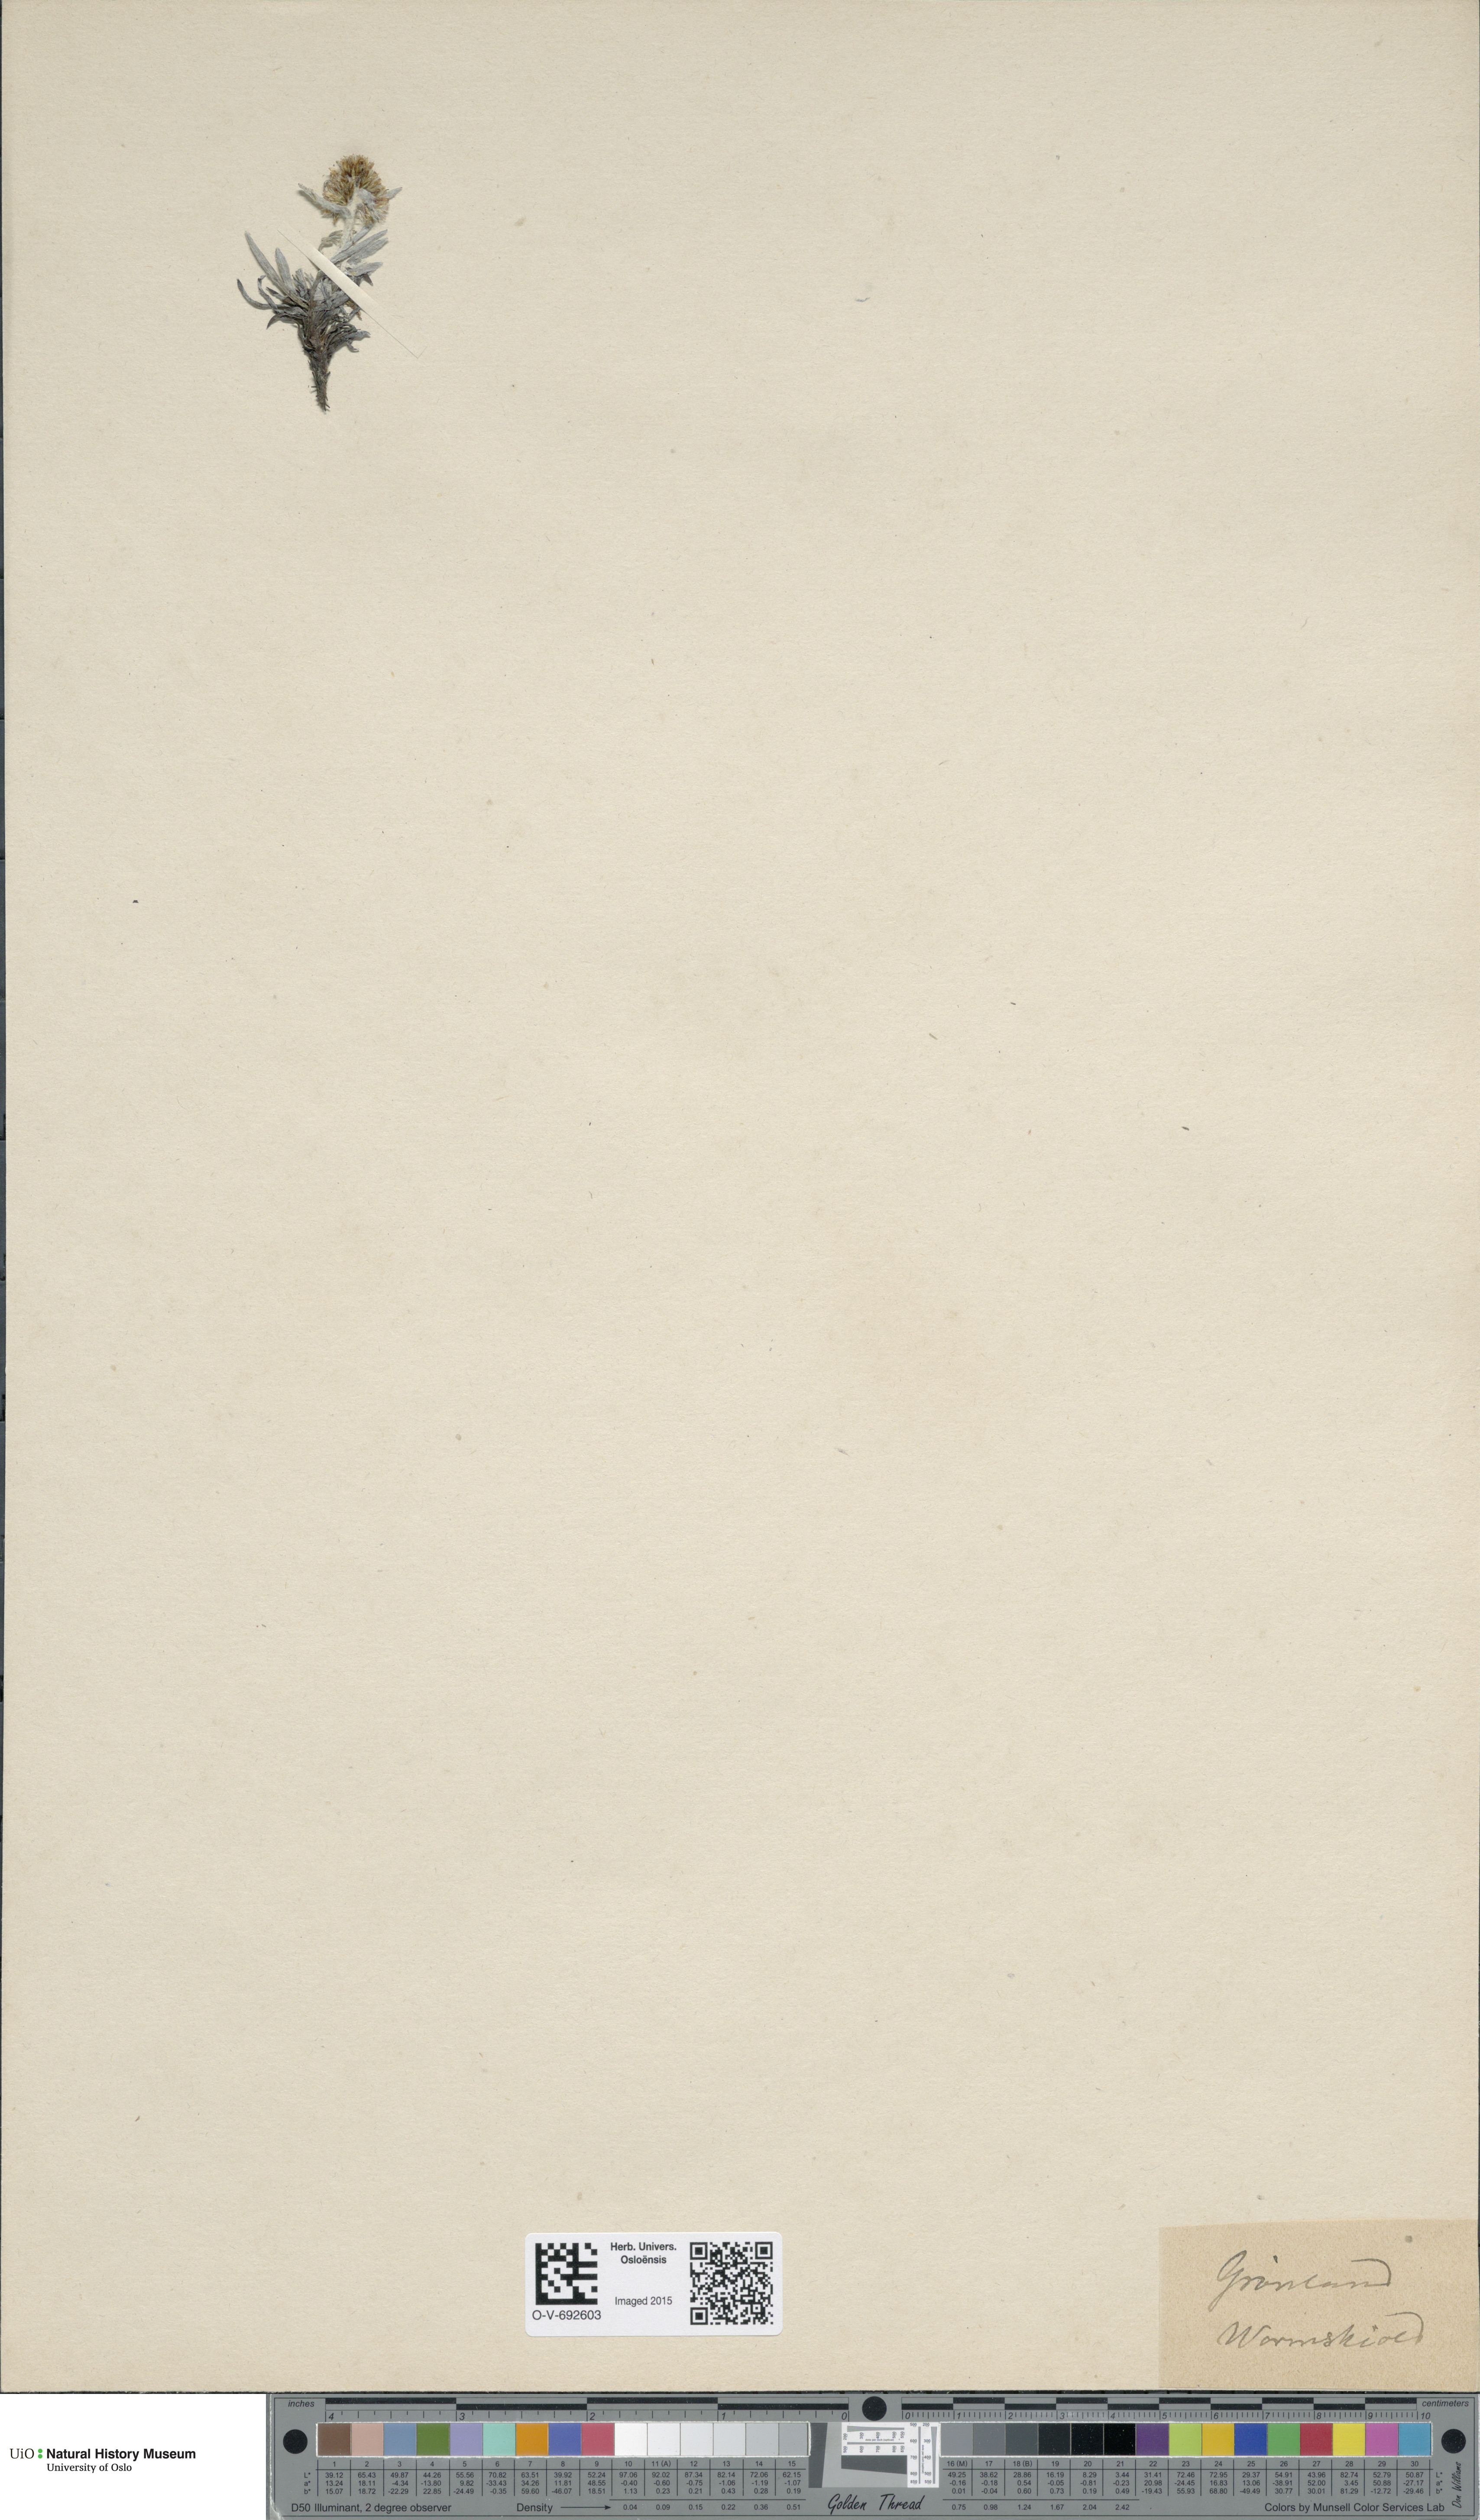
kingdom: Plantae
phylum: Tracheophyta
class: Magnoliopsida
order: Asterales
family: Asteraceae
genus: Omalotheca
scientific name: Omalotheca supina
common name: Alpine arctic-cudweed
